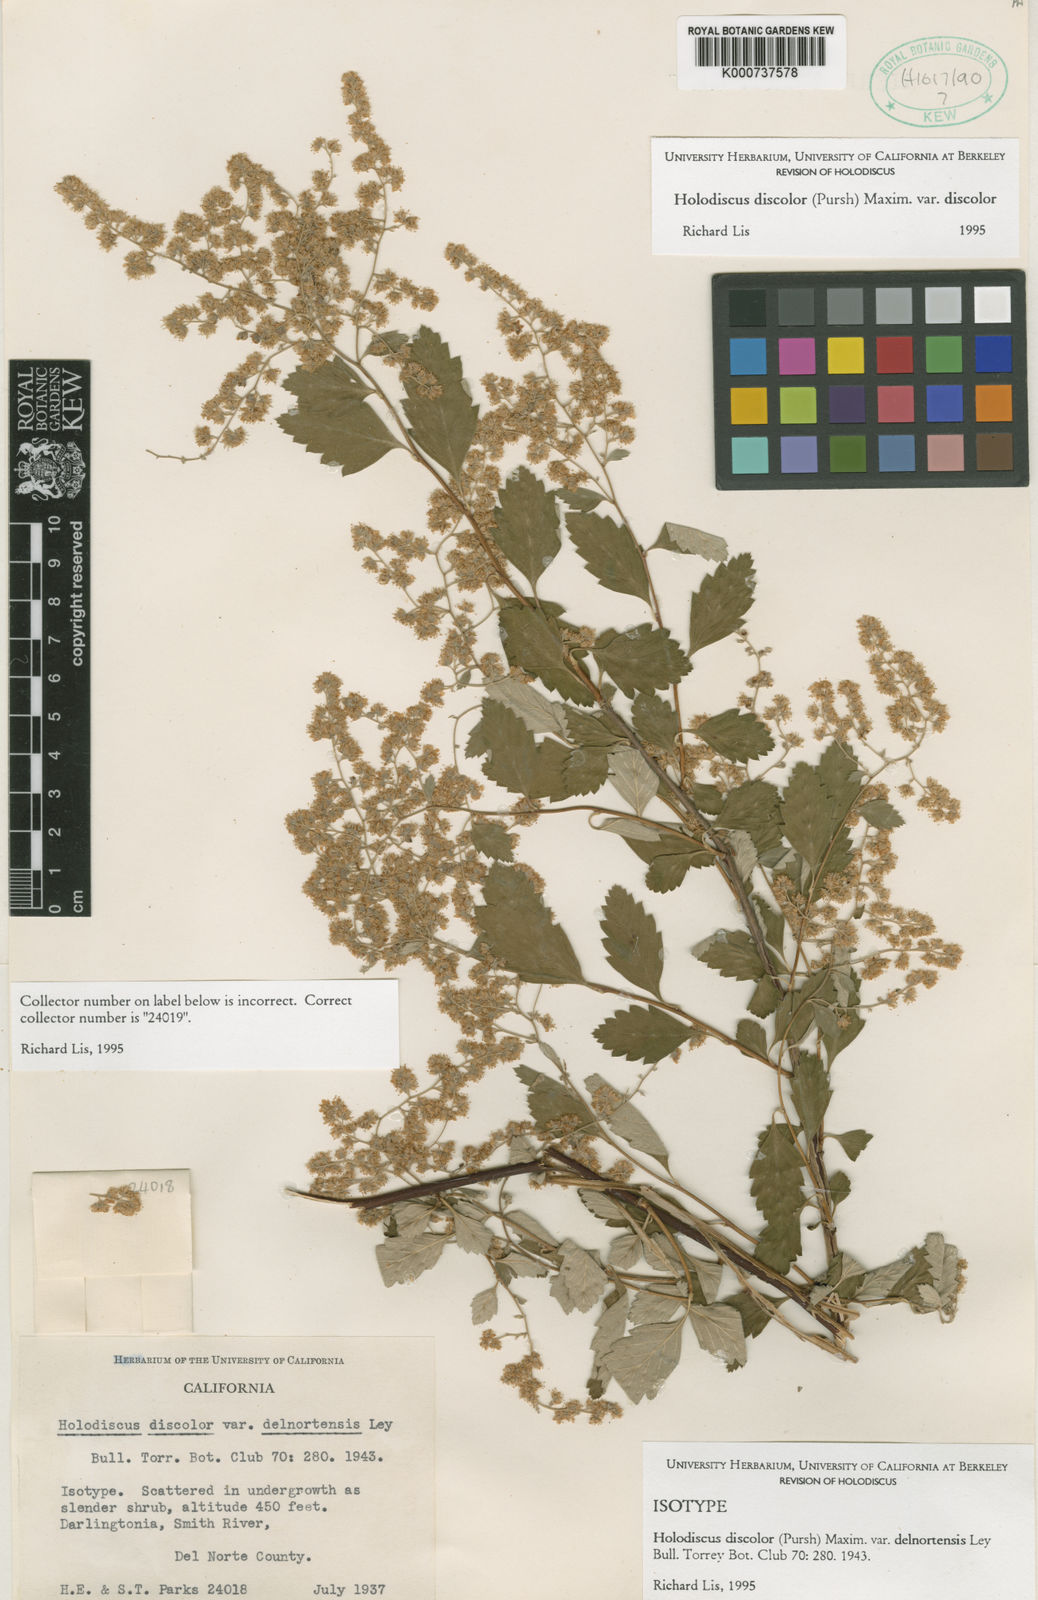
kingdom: Plantae
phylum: Tracheophyta
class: Magnoliopsida
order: Rosales
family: Rosaceae
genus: Holodiscus
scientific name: Holodiscus discolor
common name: Oceanspray
